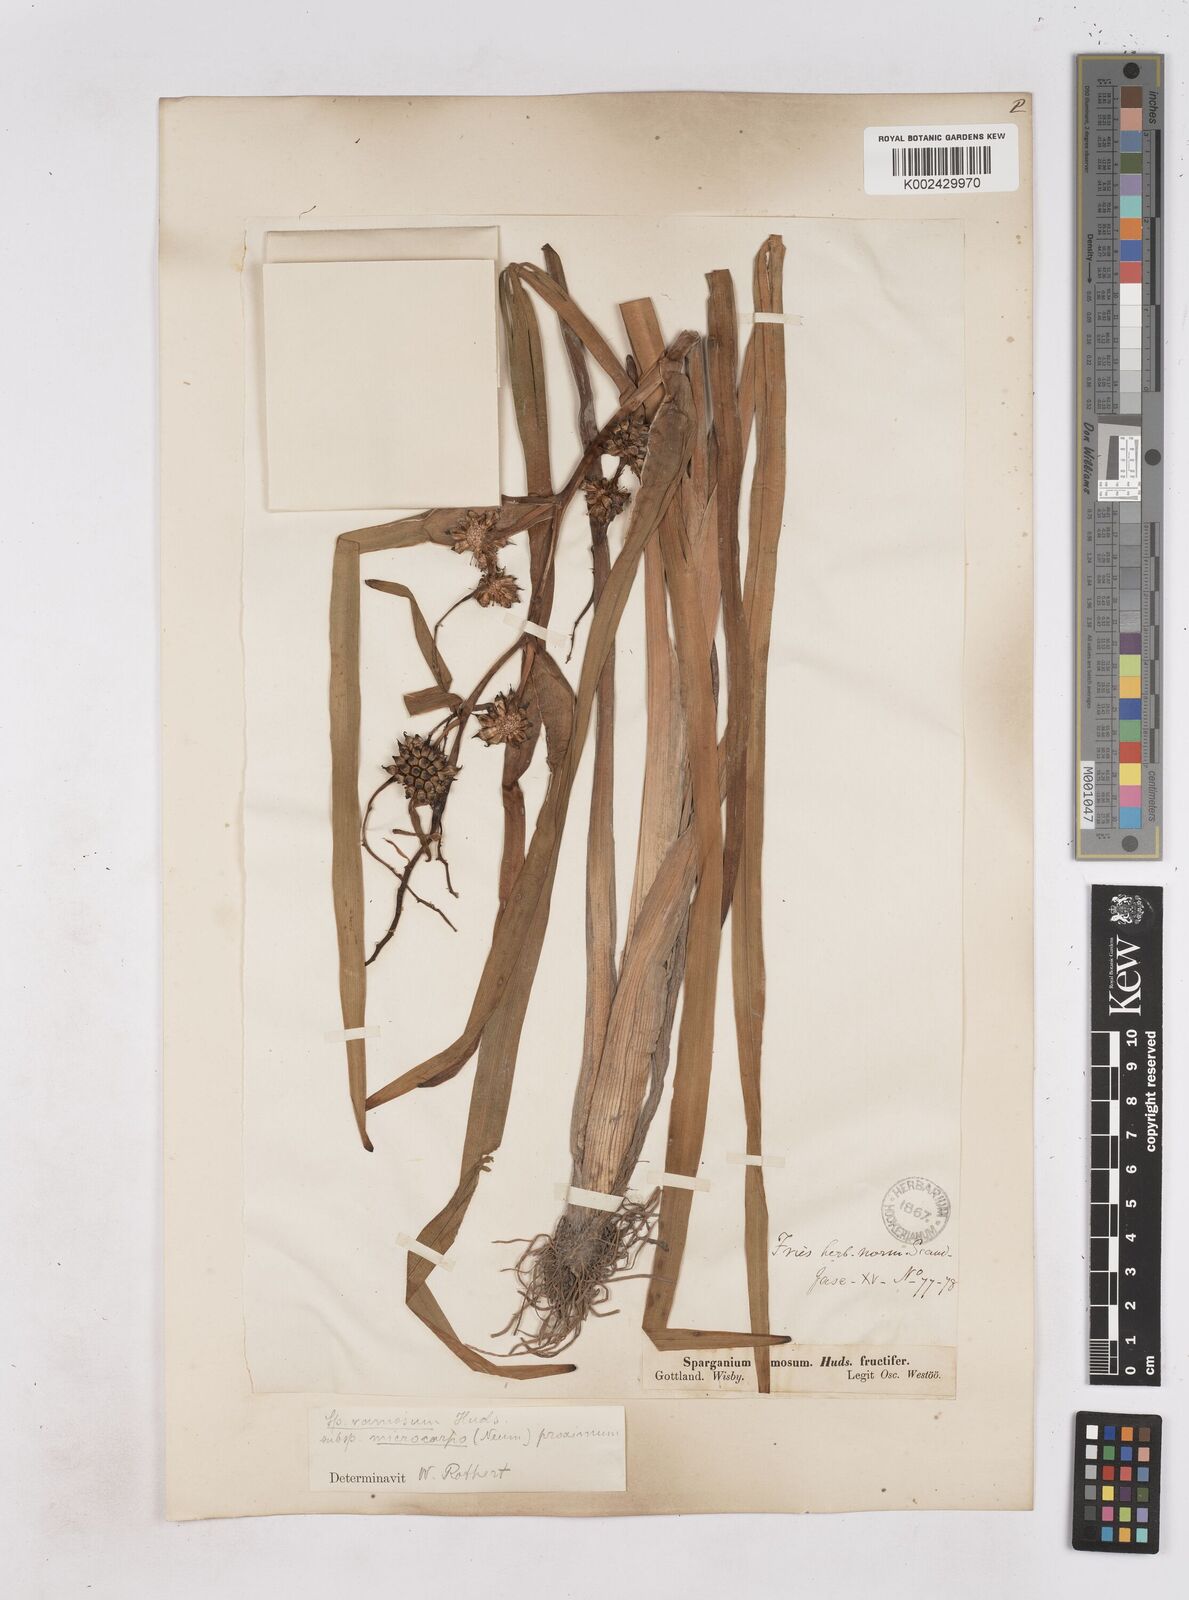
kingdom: Plantae
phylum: Tracheophyta
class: Liliopsida
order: Poales
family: Typhaceae
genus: Sparganium
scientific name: Sparganium erectum
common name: Branched bur-reed
